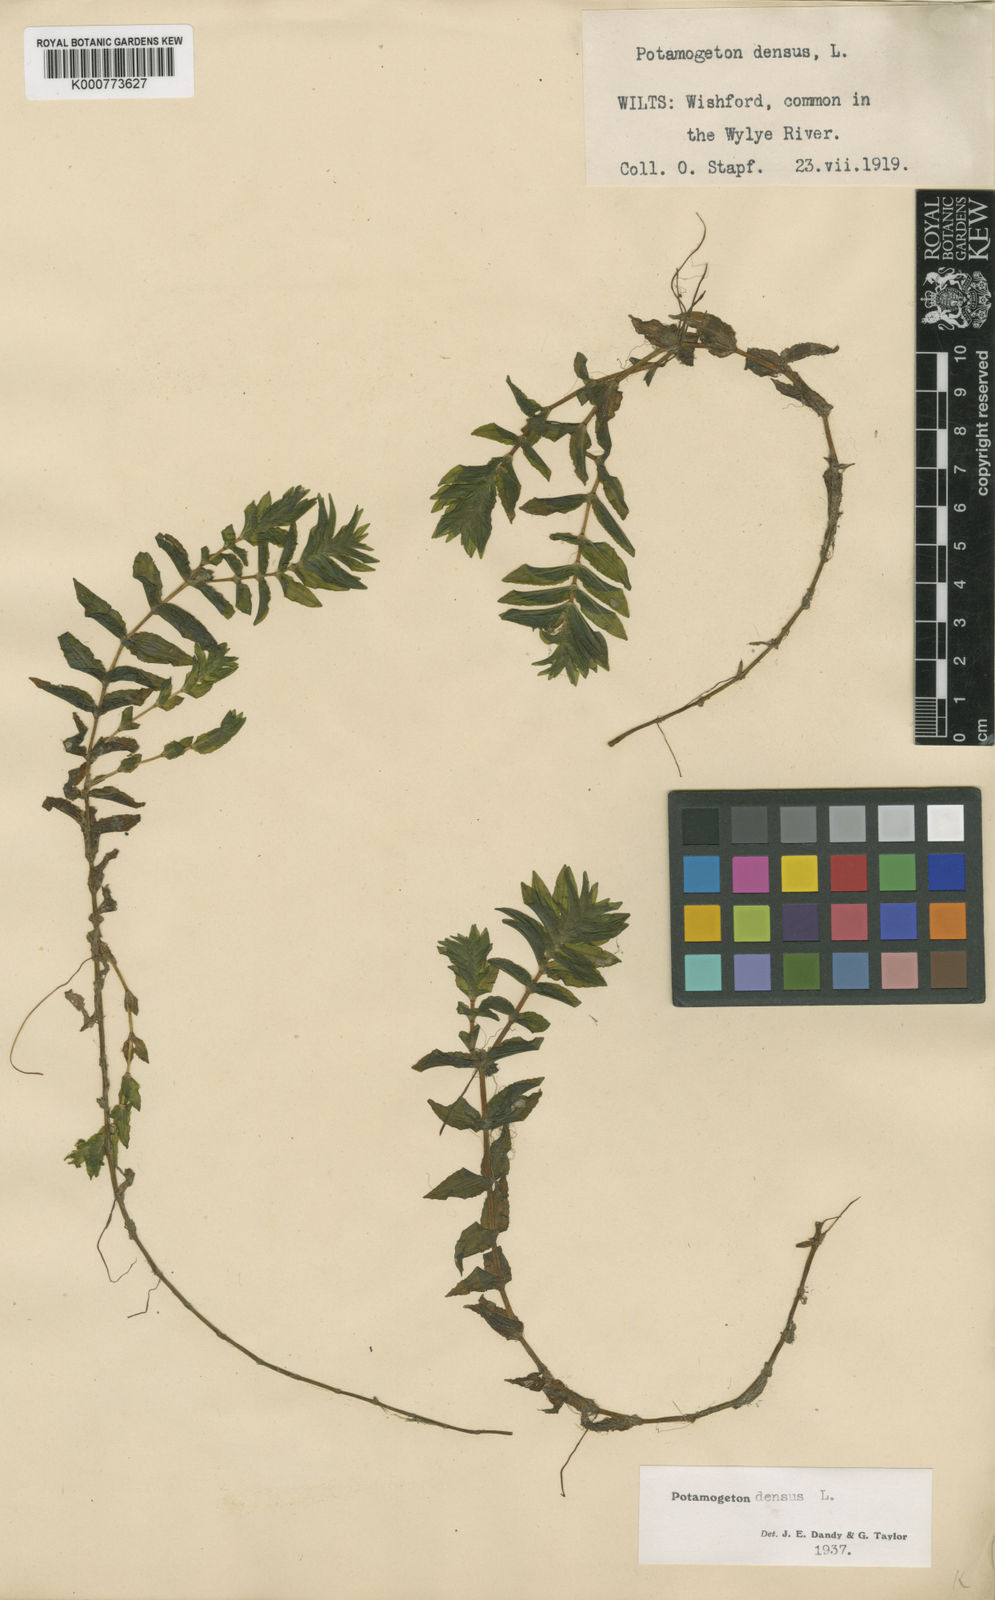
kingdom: Plantae
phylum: Tracheophyta
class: Liliopsida
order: Alismatales
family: Potamogetonaceae
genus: Groenlandia
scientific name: Groenlandia densa
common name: Opposite-leaved pondweed
